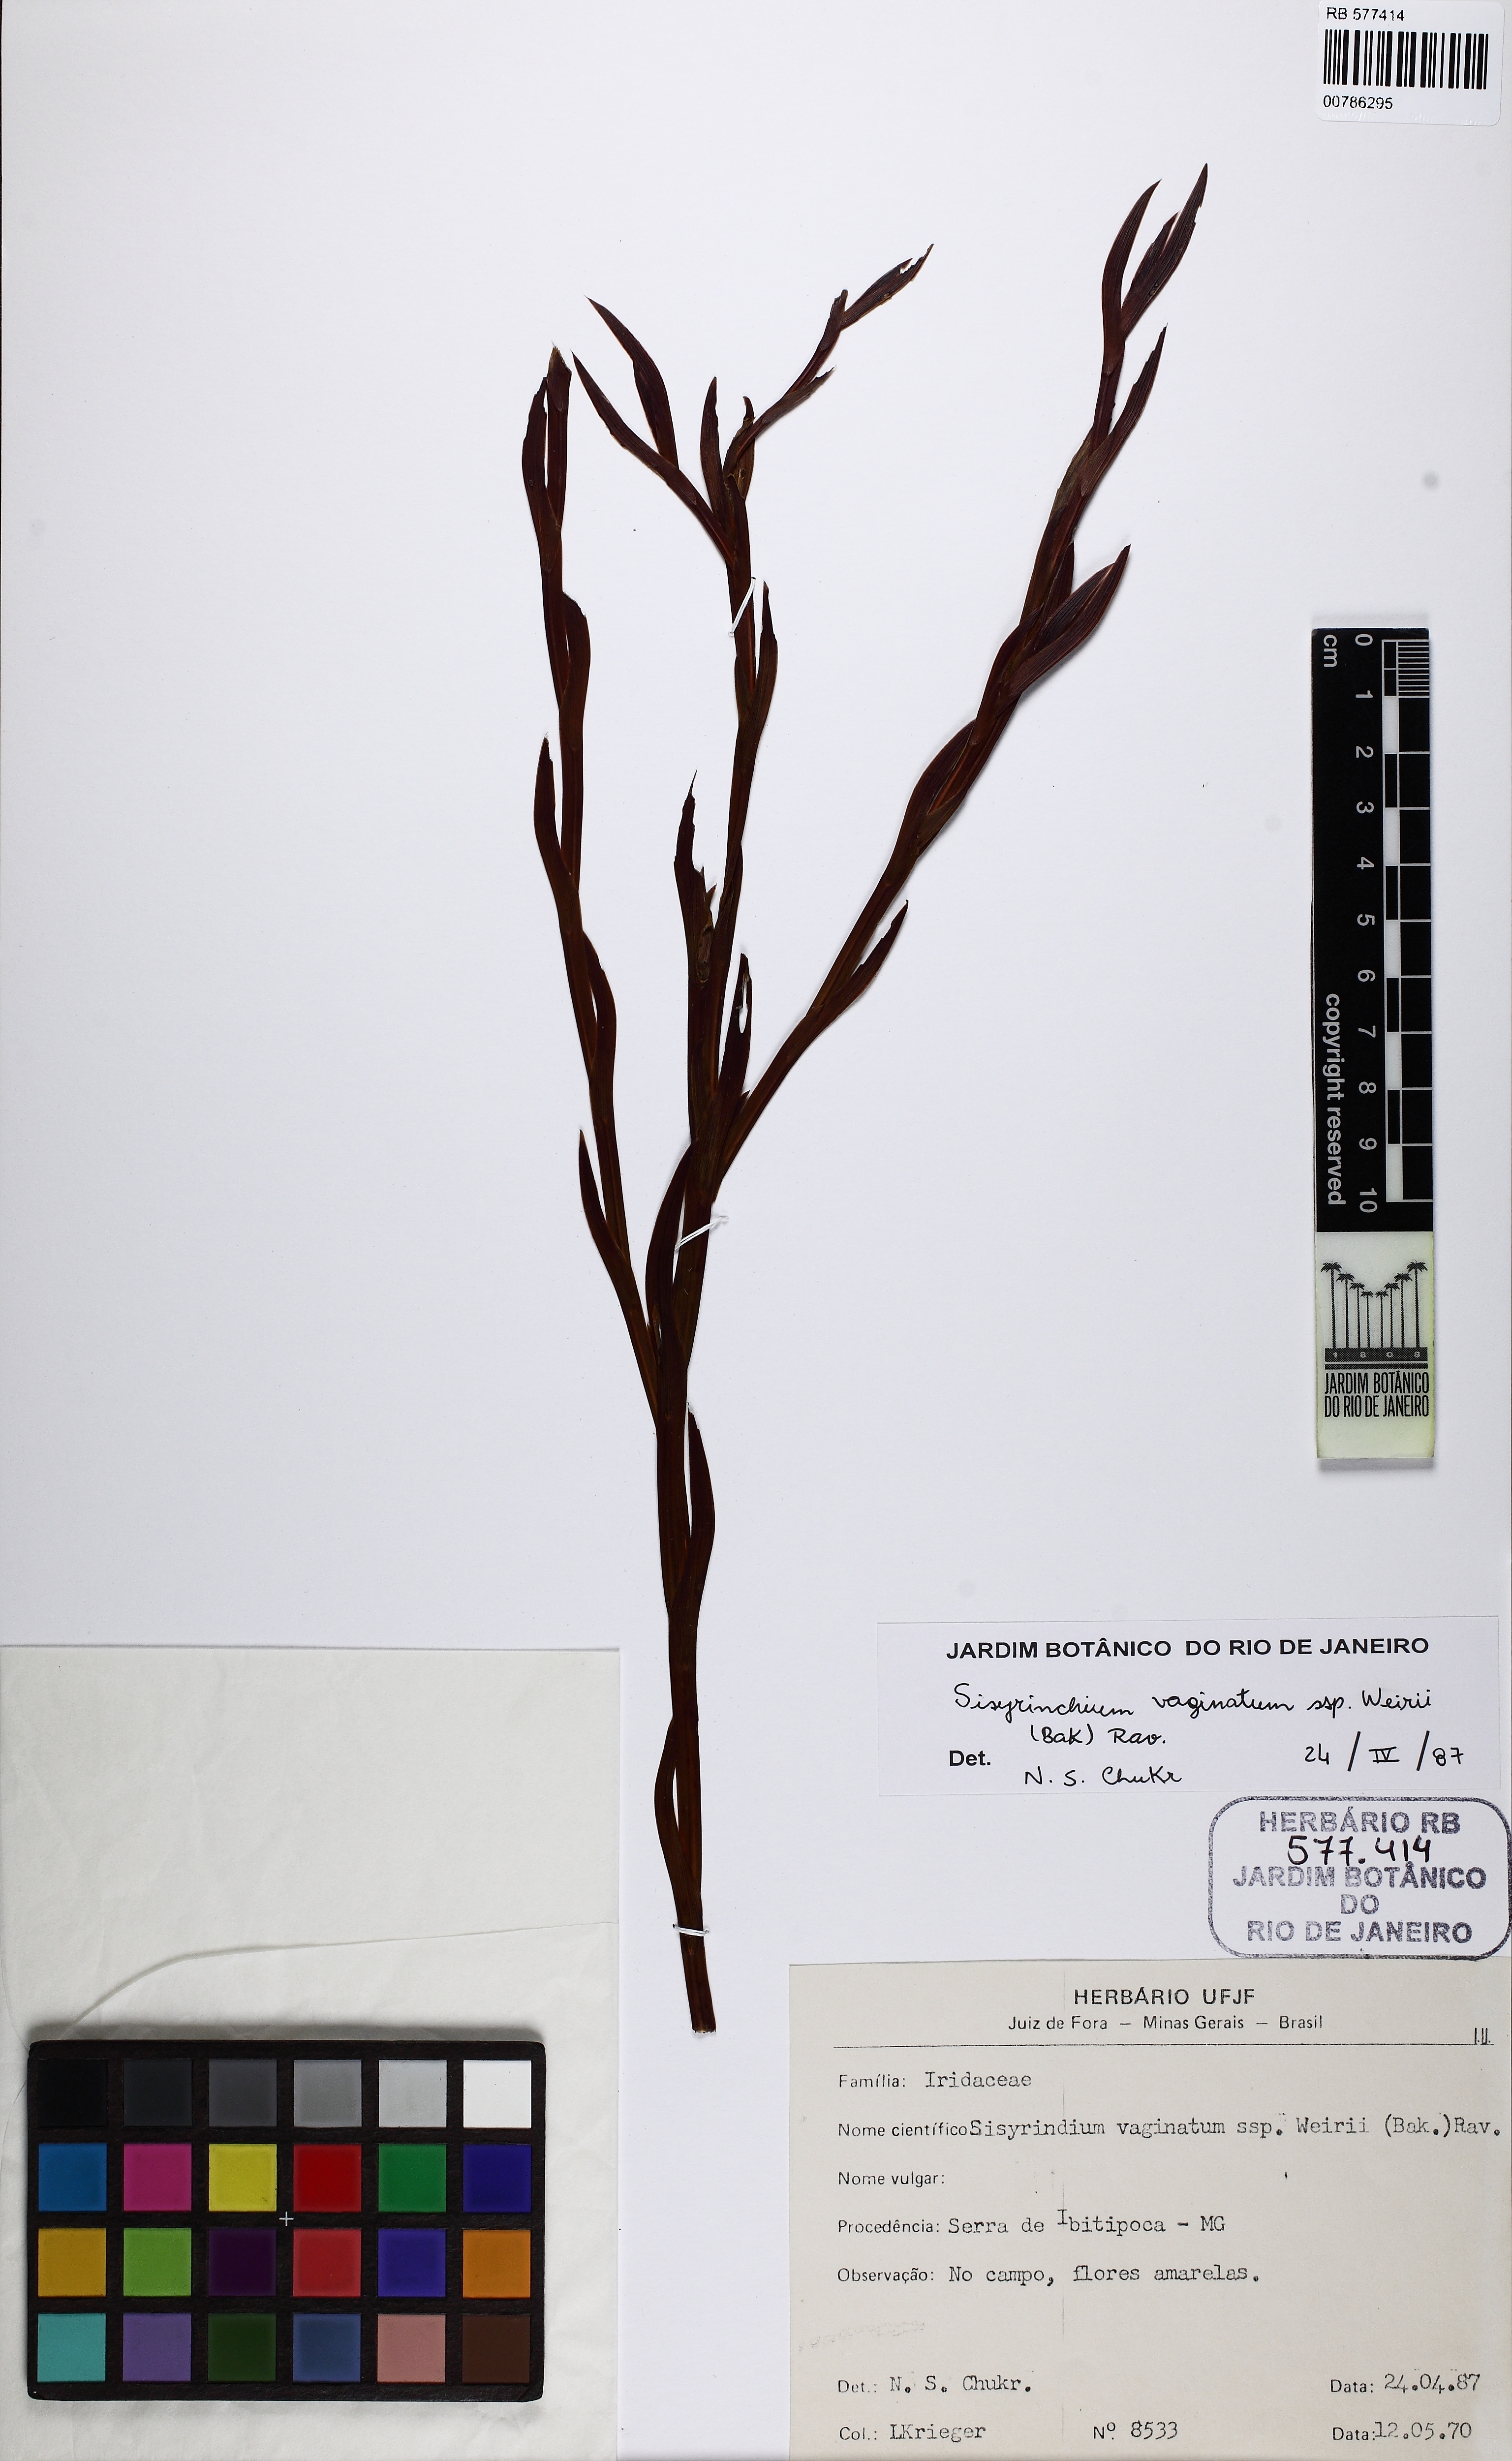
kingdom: Plantae
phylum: Tracheophyta
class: Liliopsida
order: Asparagales
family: Iridaceae
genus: Sisyrinchium
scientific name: Sisyrinchium vaginatum
